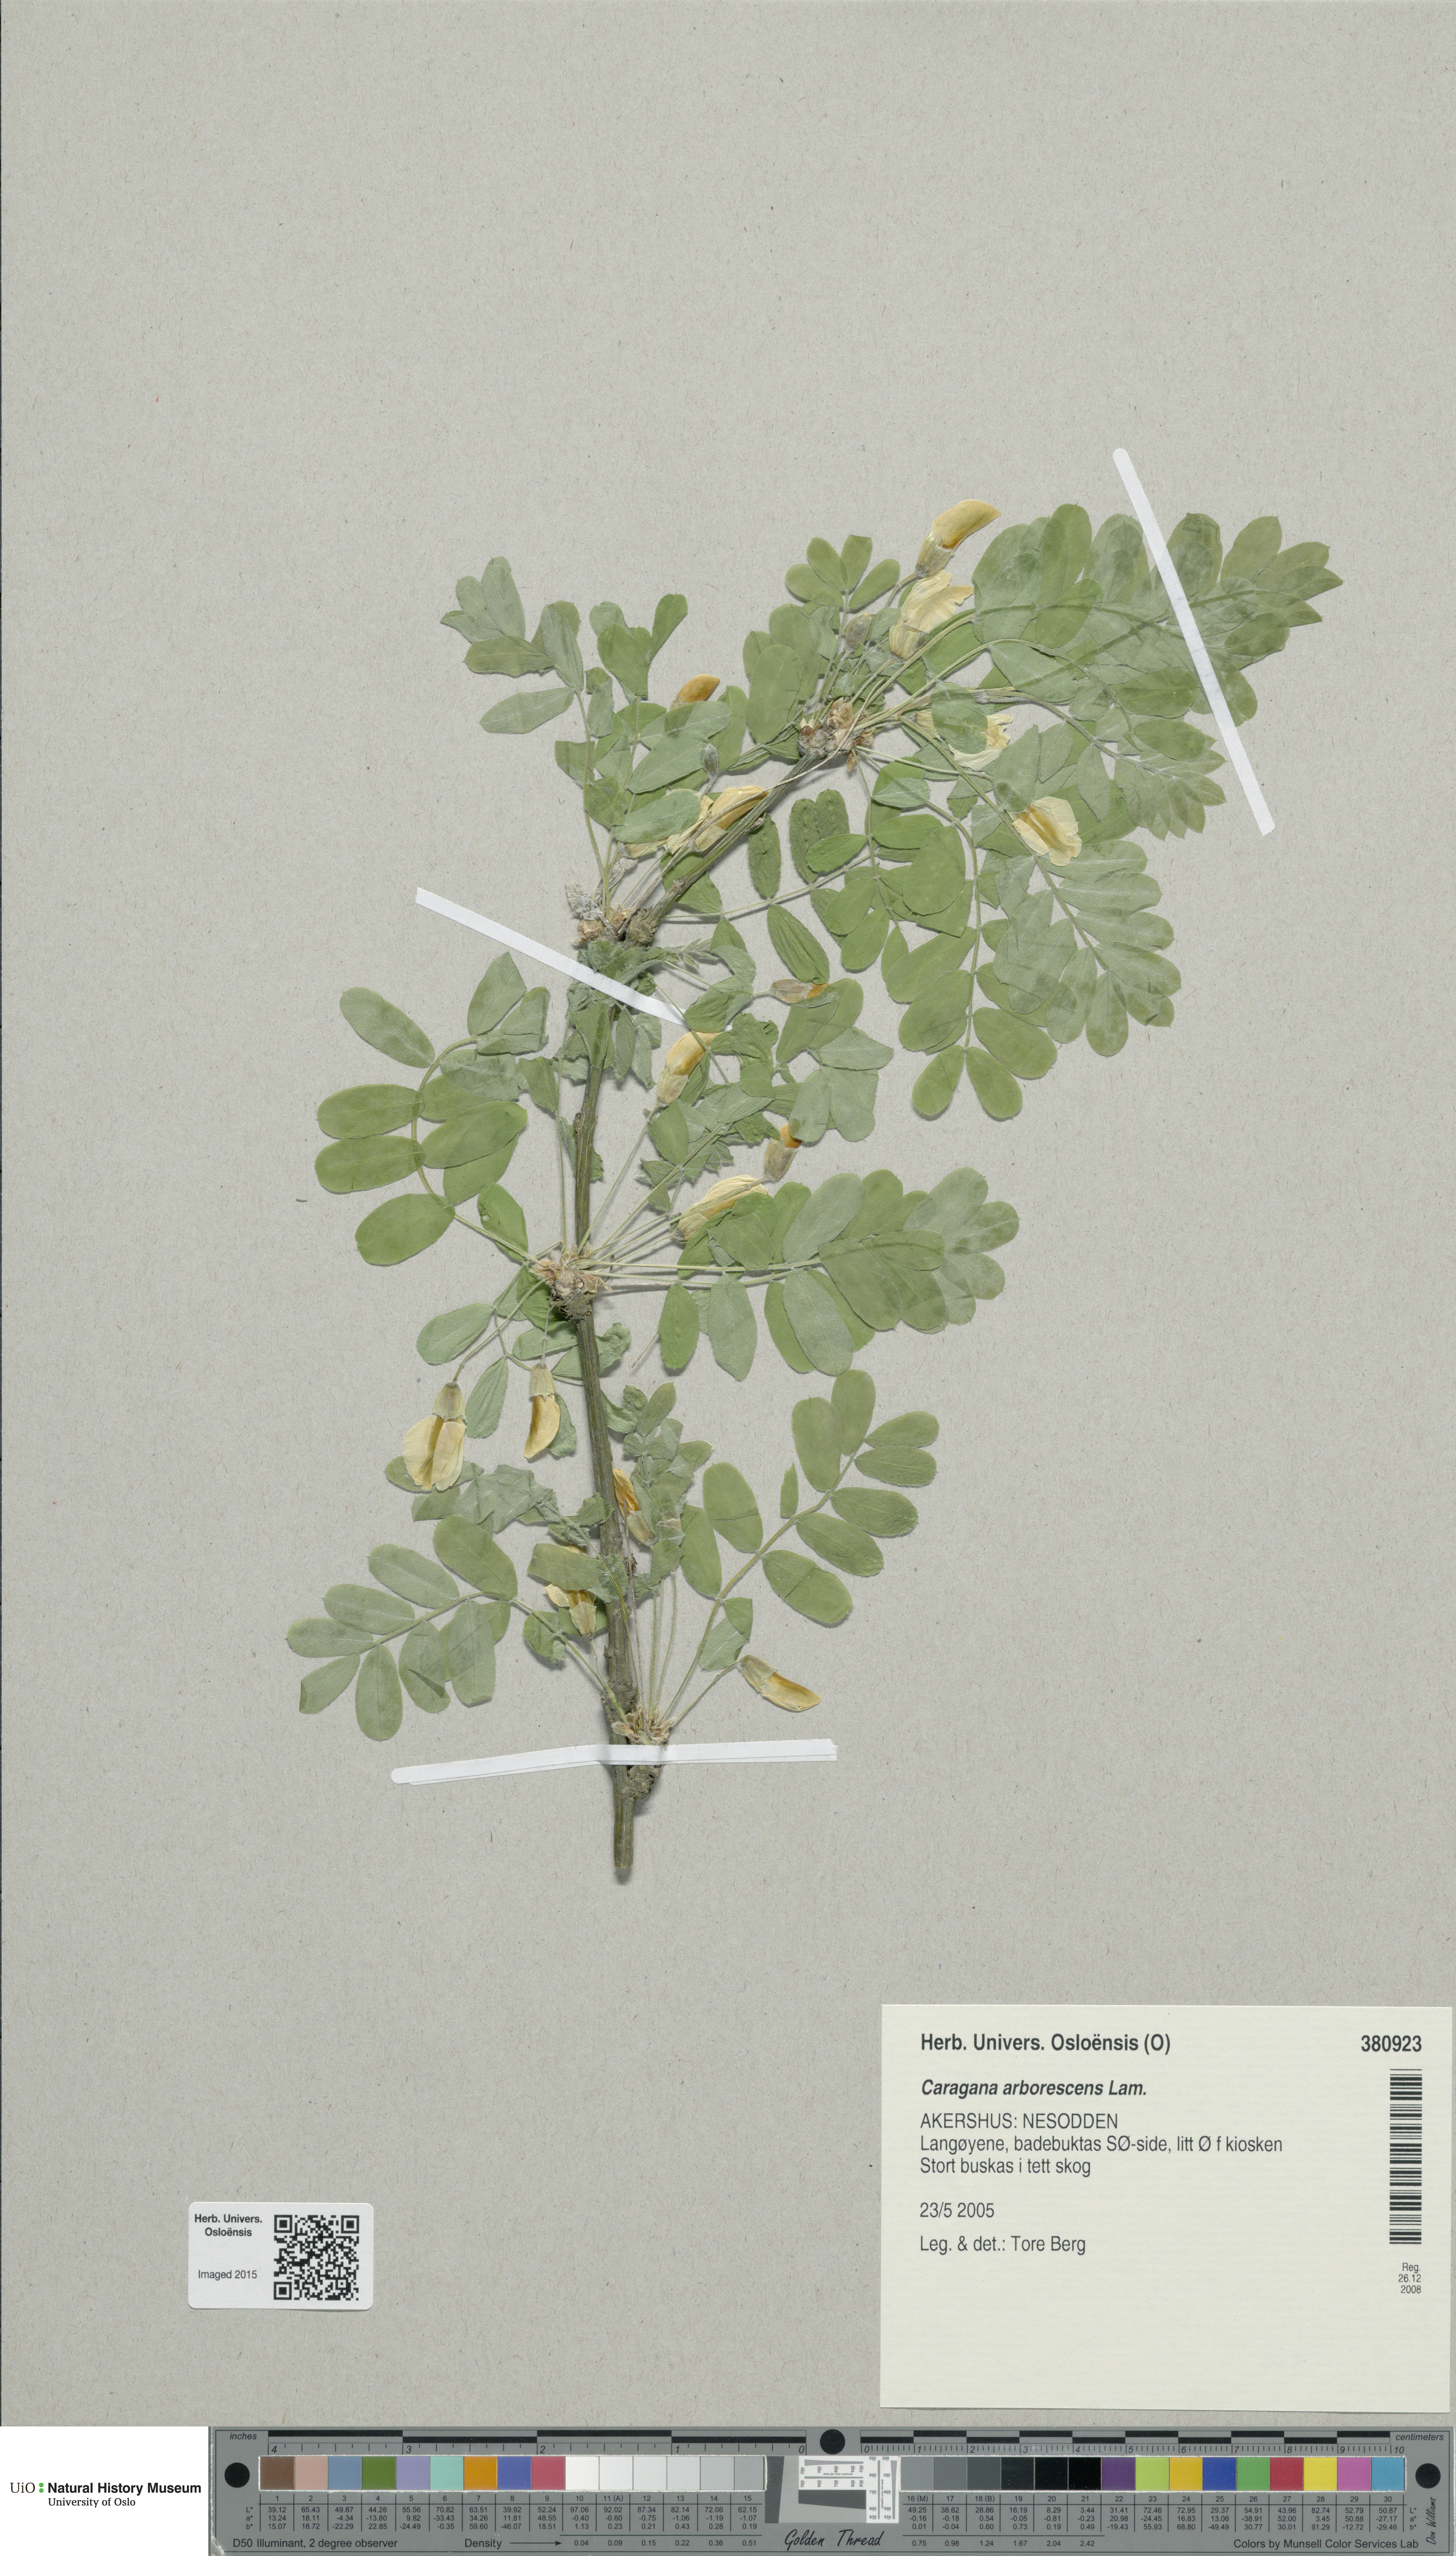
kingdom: Plantae
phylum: Tracheophyta
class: Magnoliopsida
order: Fabales
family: Fabaceae
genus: Caragana
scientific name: Caragana arborescens
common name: Siberian peashrub
